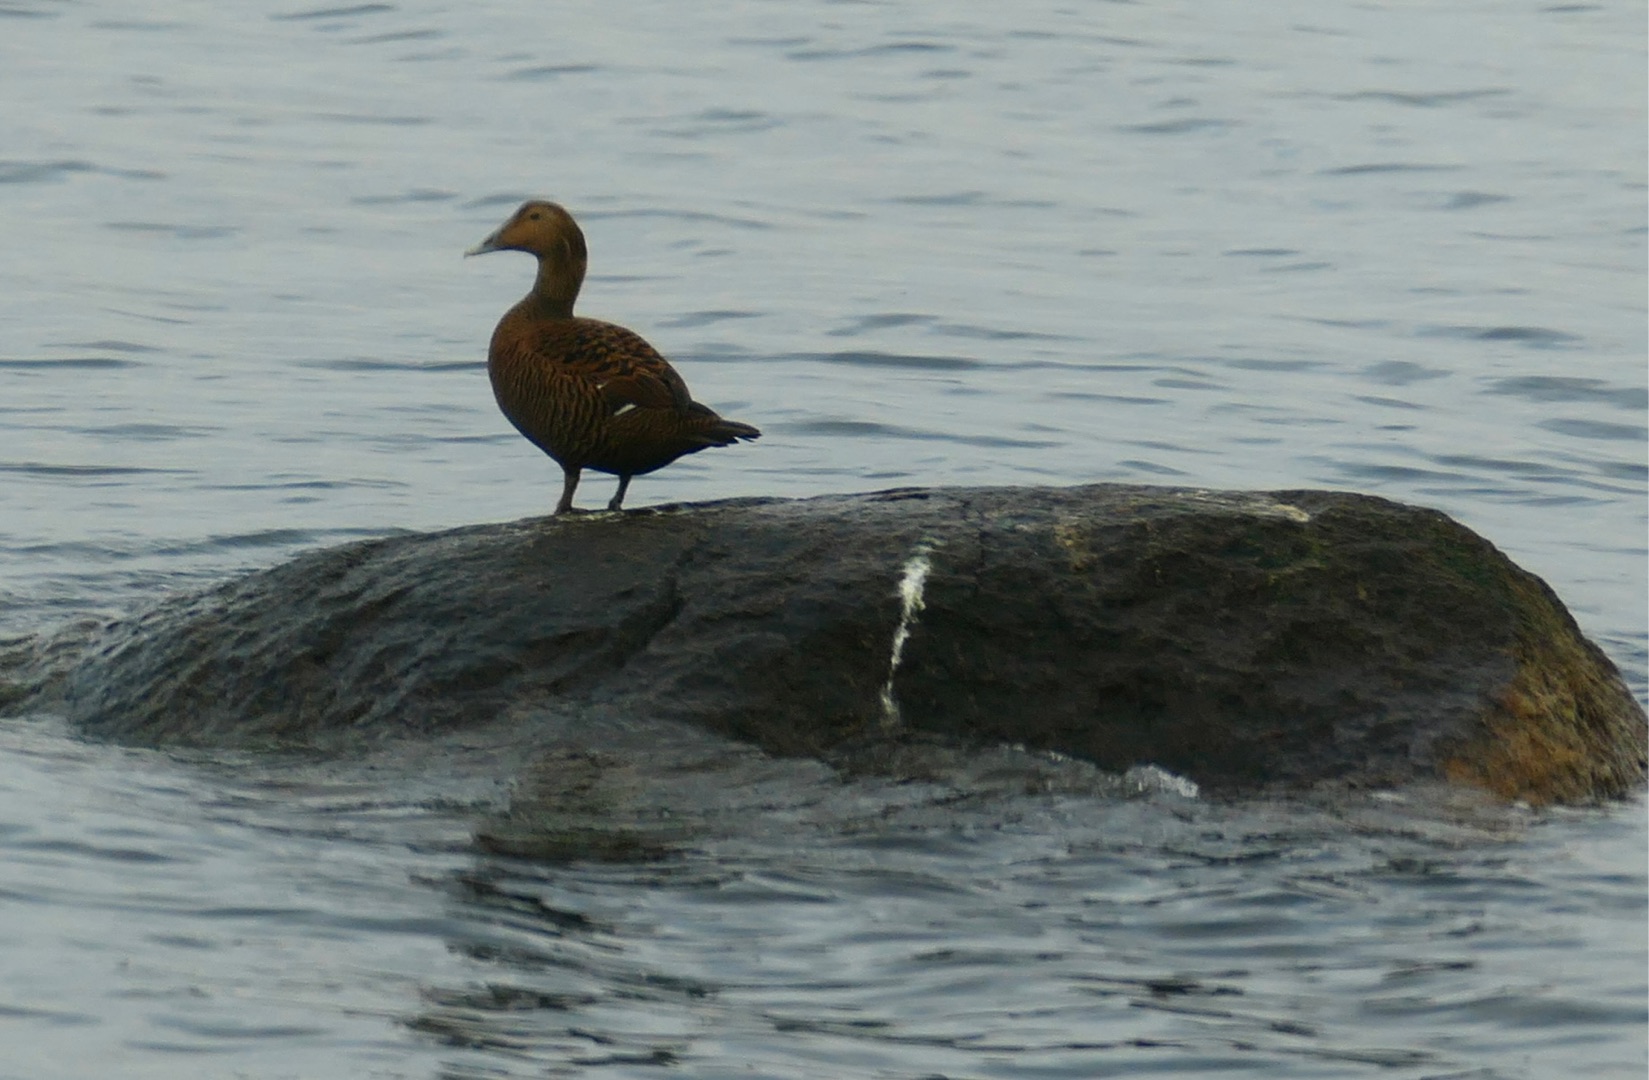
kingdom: Animalia
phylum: Chordata
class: Aves
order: Anseriformes
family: Anatidae
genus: Somateria
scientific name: Somateria mollissima
